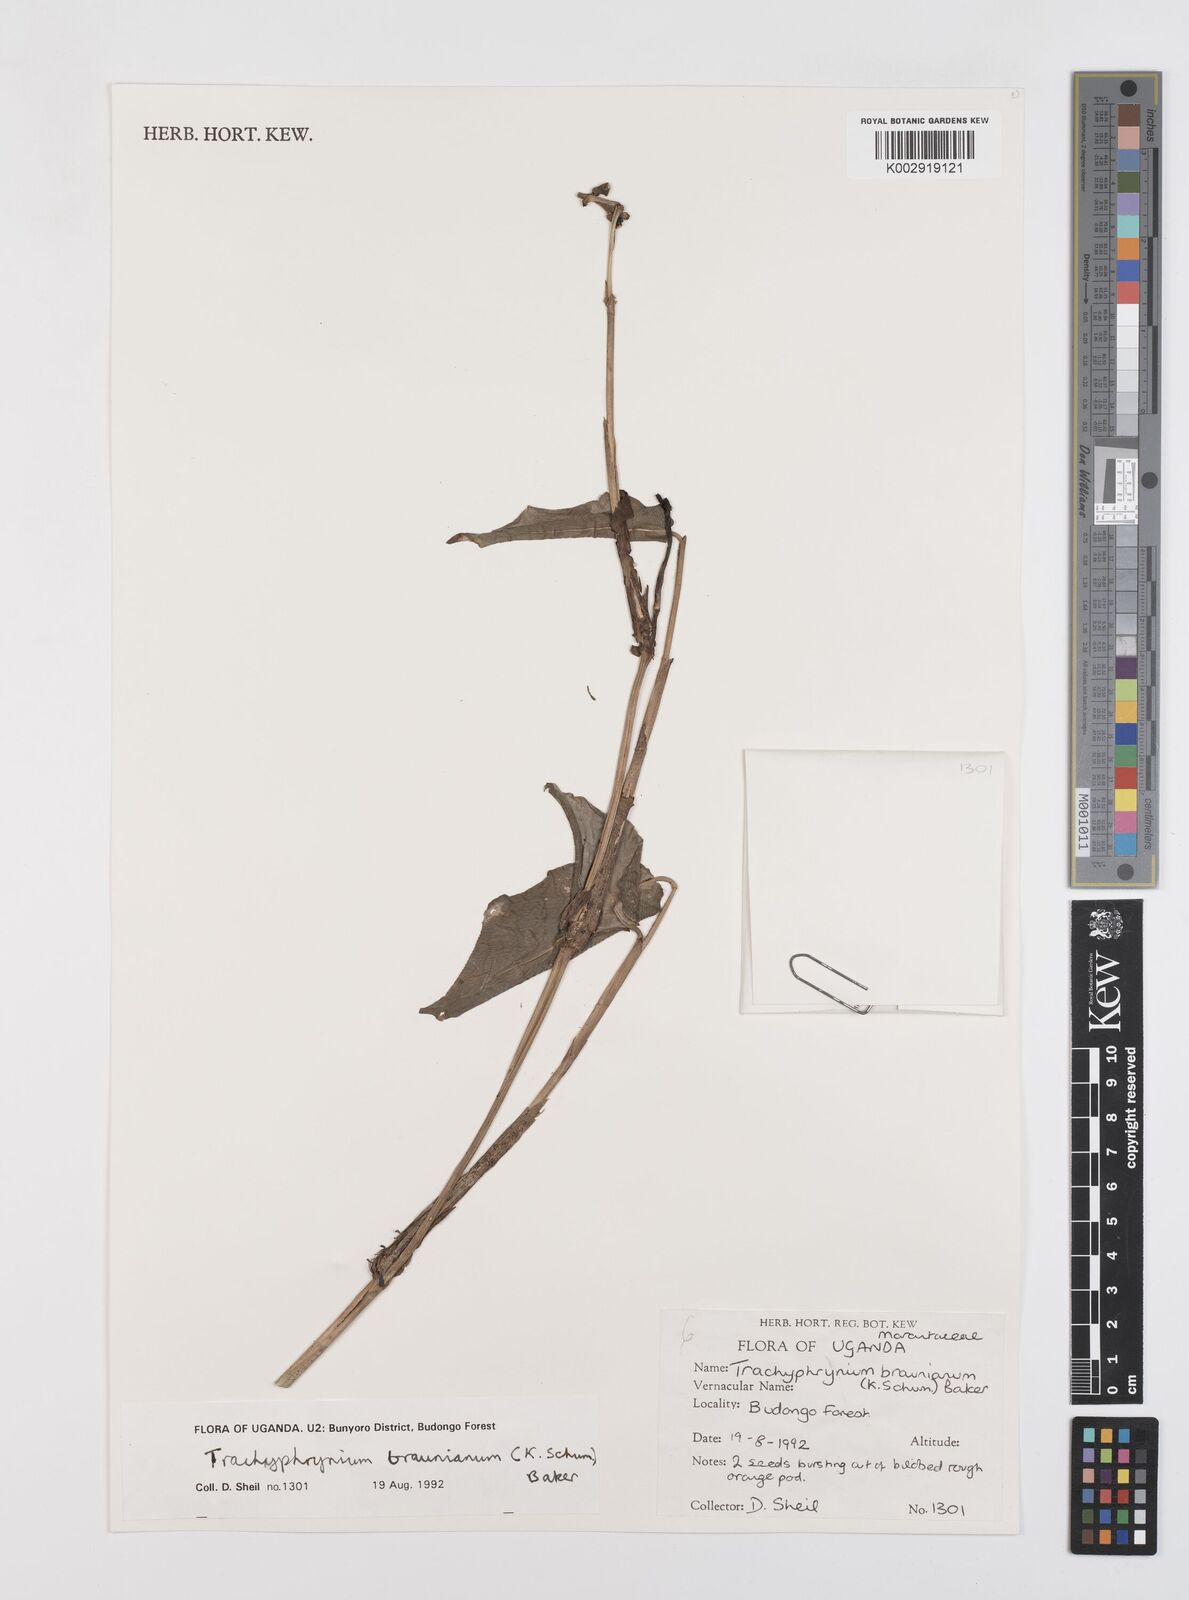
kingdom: Plantae
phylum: Tracheophyta
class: Liliopsida
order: Zingiberales
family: Marantaceae
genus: Trachyphrynium
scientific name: Trachyphrynium braunianum
